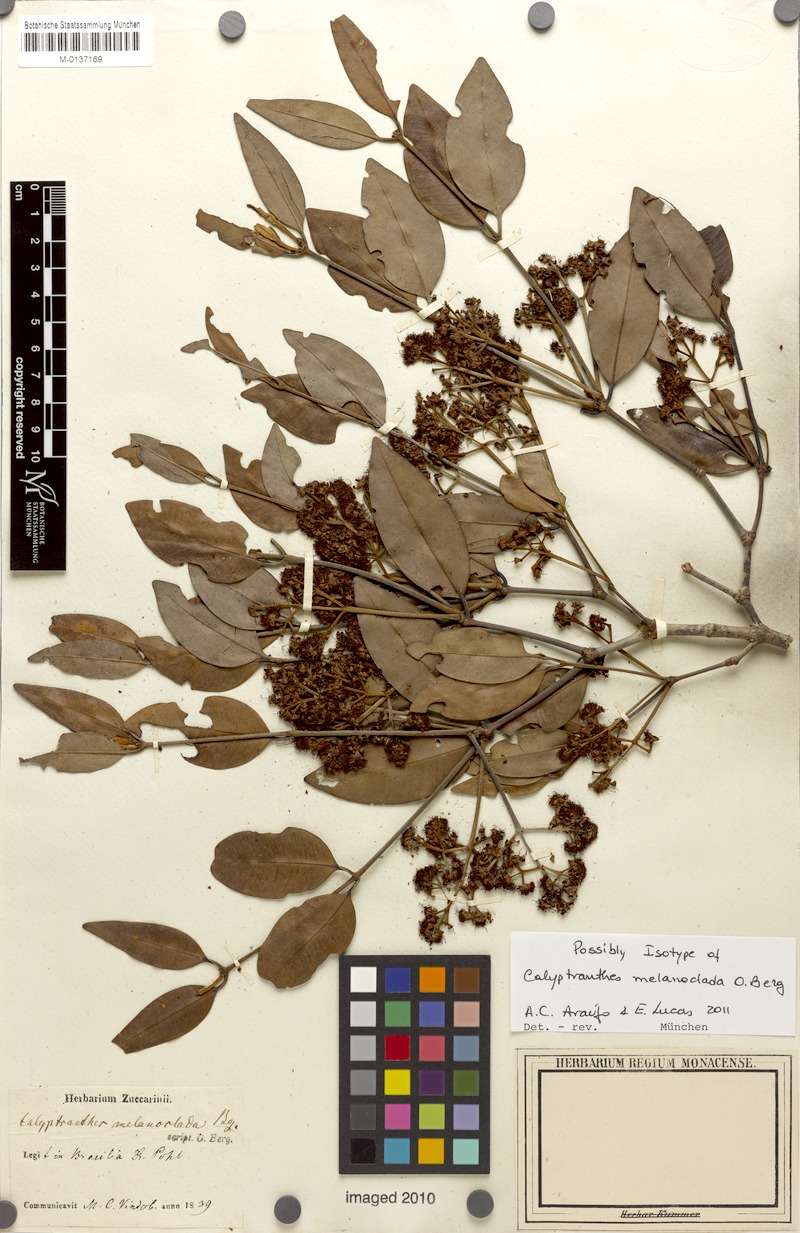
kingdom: Plantae
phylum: Tracheophyta
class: Magnoliopsida
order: Myrtales
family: Myrtaceae
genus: Calyptranthes
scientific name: Calyptranthes melanoclada
